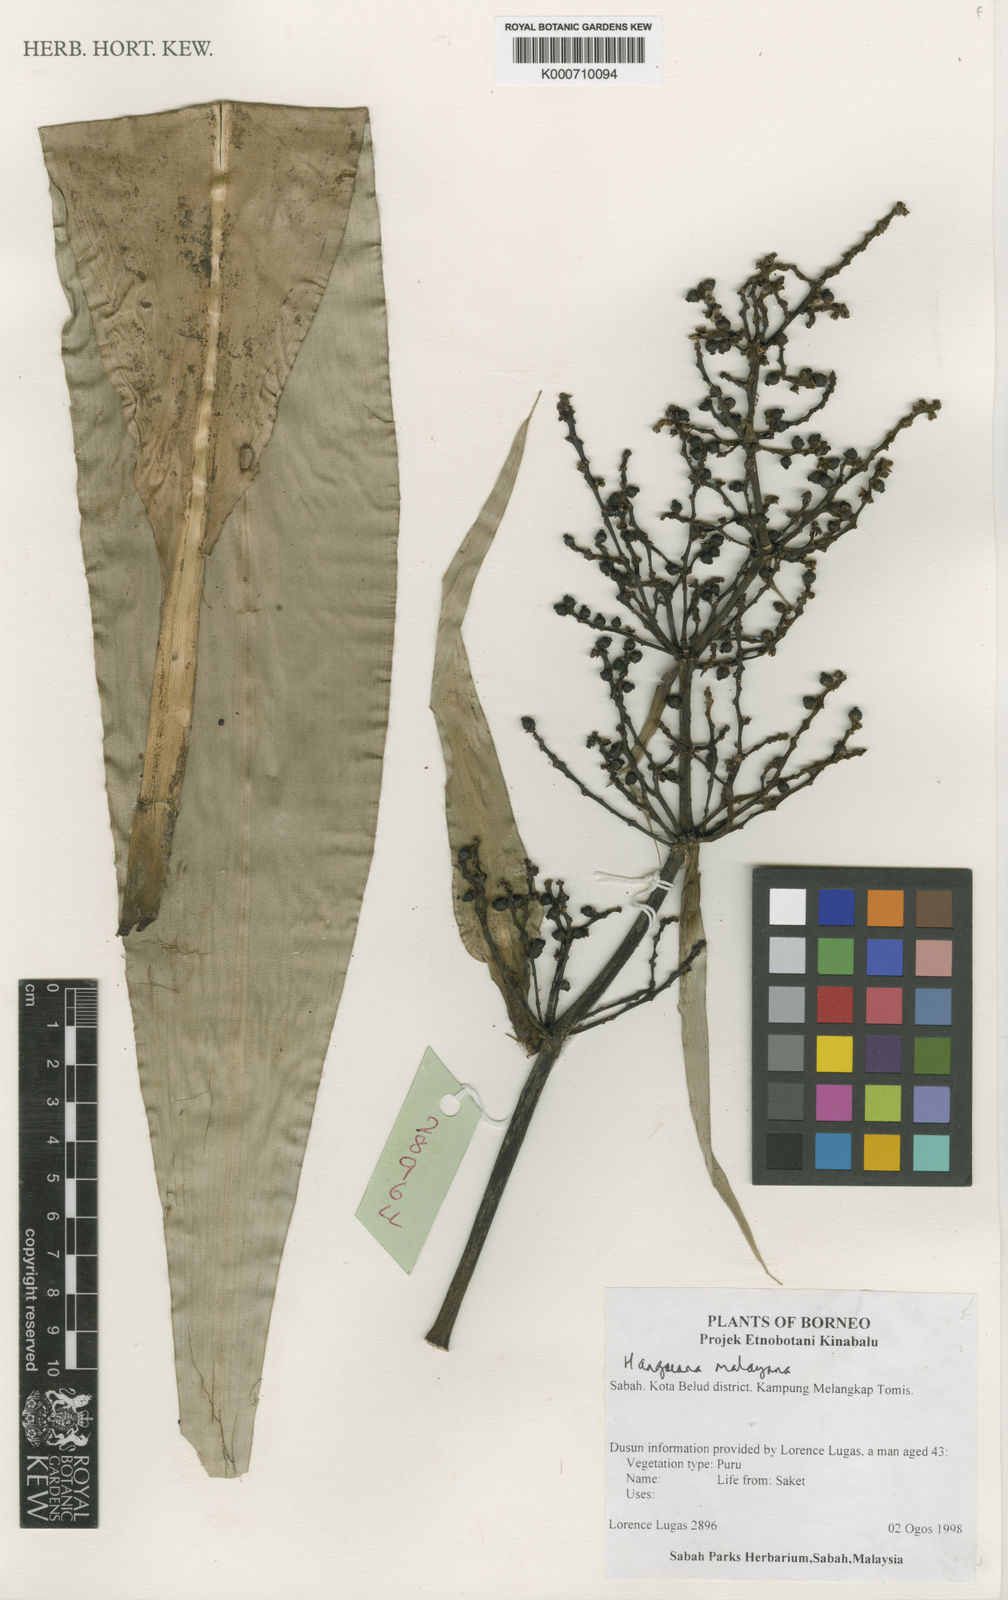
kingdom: Plantae
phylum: Tracheophyta
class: Liliopsida
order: Commelinales
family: Hanguanaceae
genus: Hanguana
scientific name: Hanguana malayana
